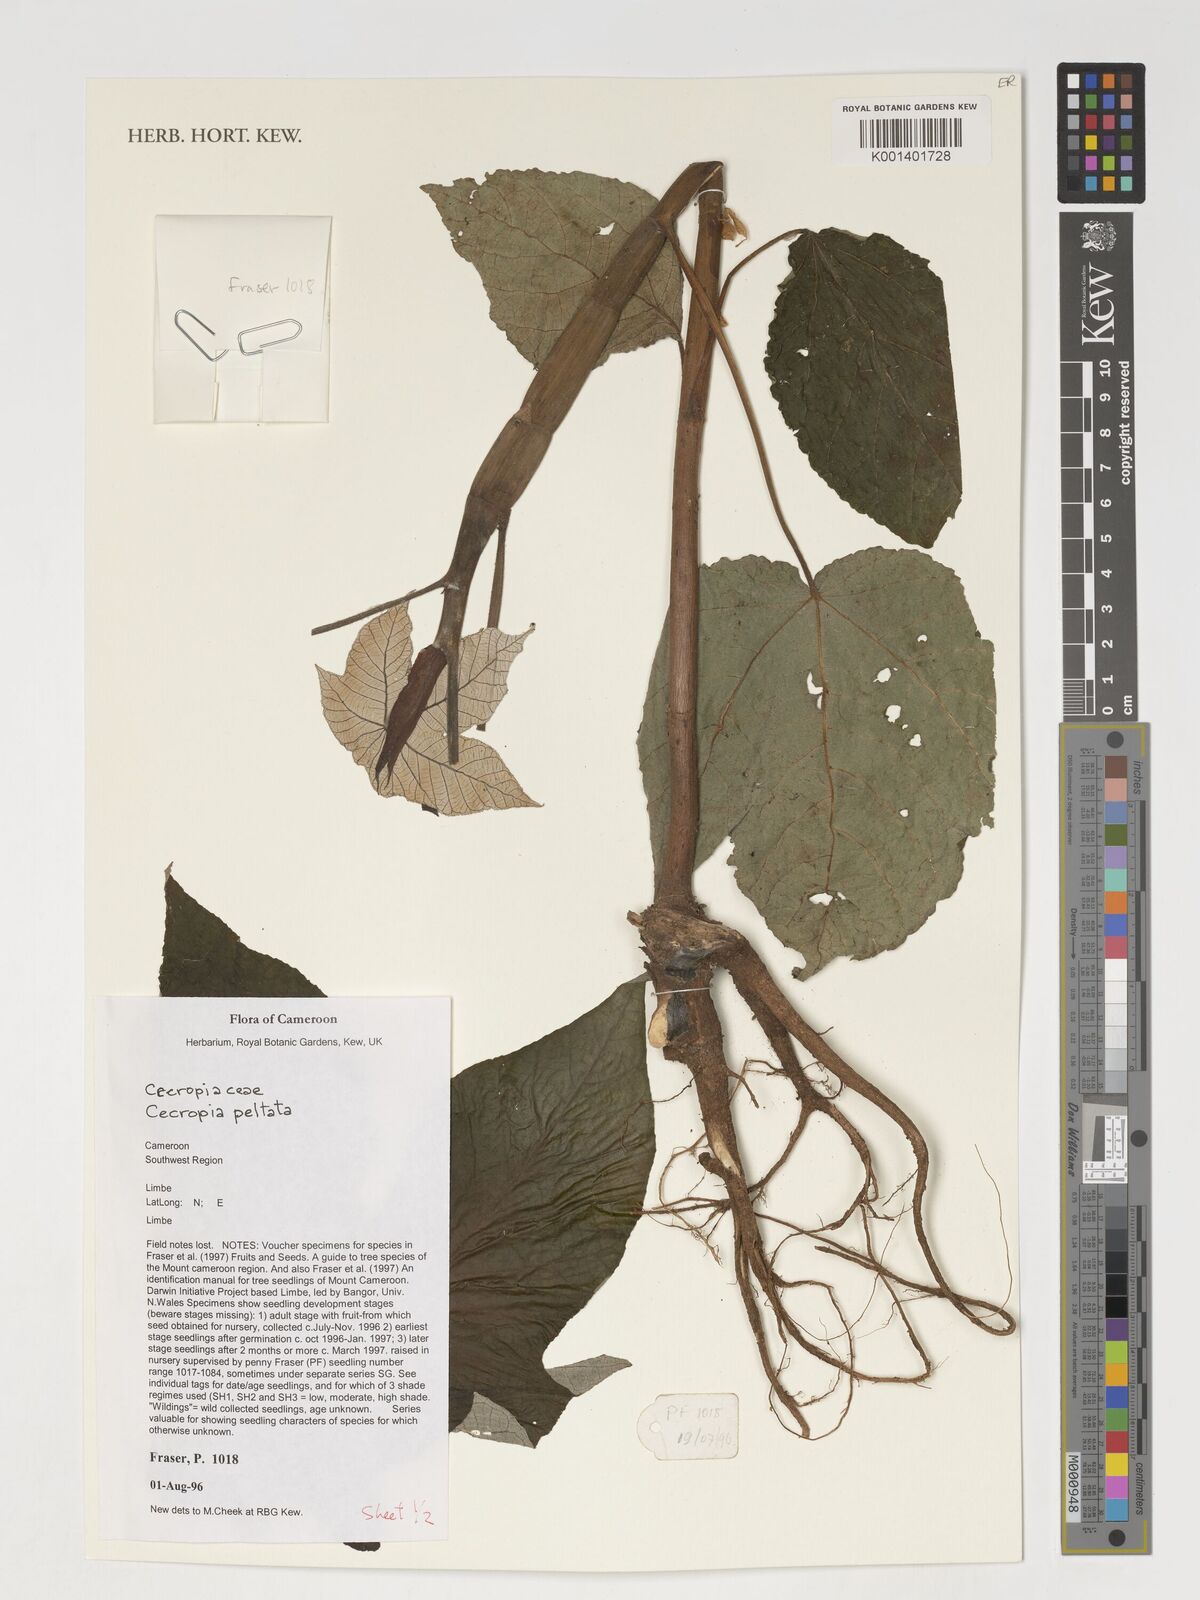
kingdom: Plantae
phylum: Tracheophyta
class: Magnoliopsida
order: Rosales
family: Urticaceae
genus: Cecropia
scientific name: Cecropia peltata
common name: Trumpet-tree
